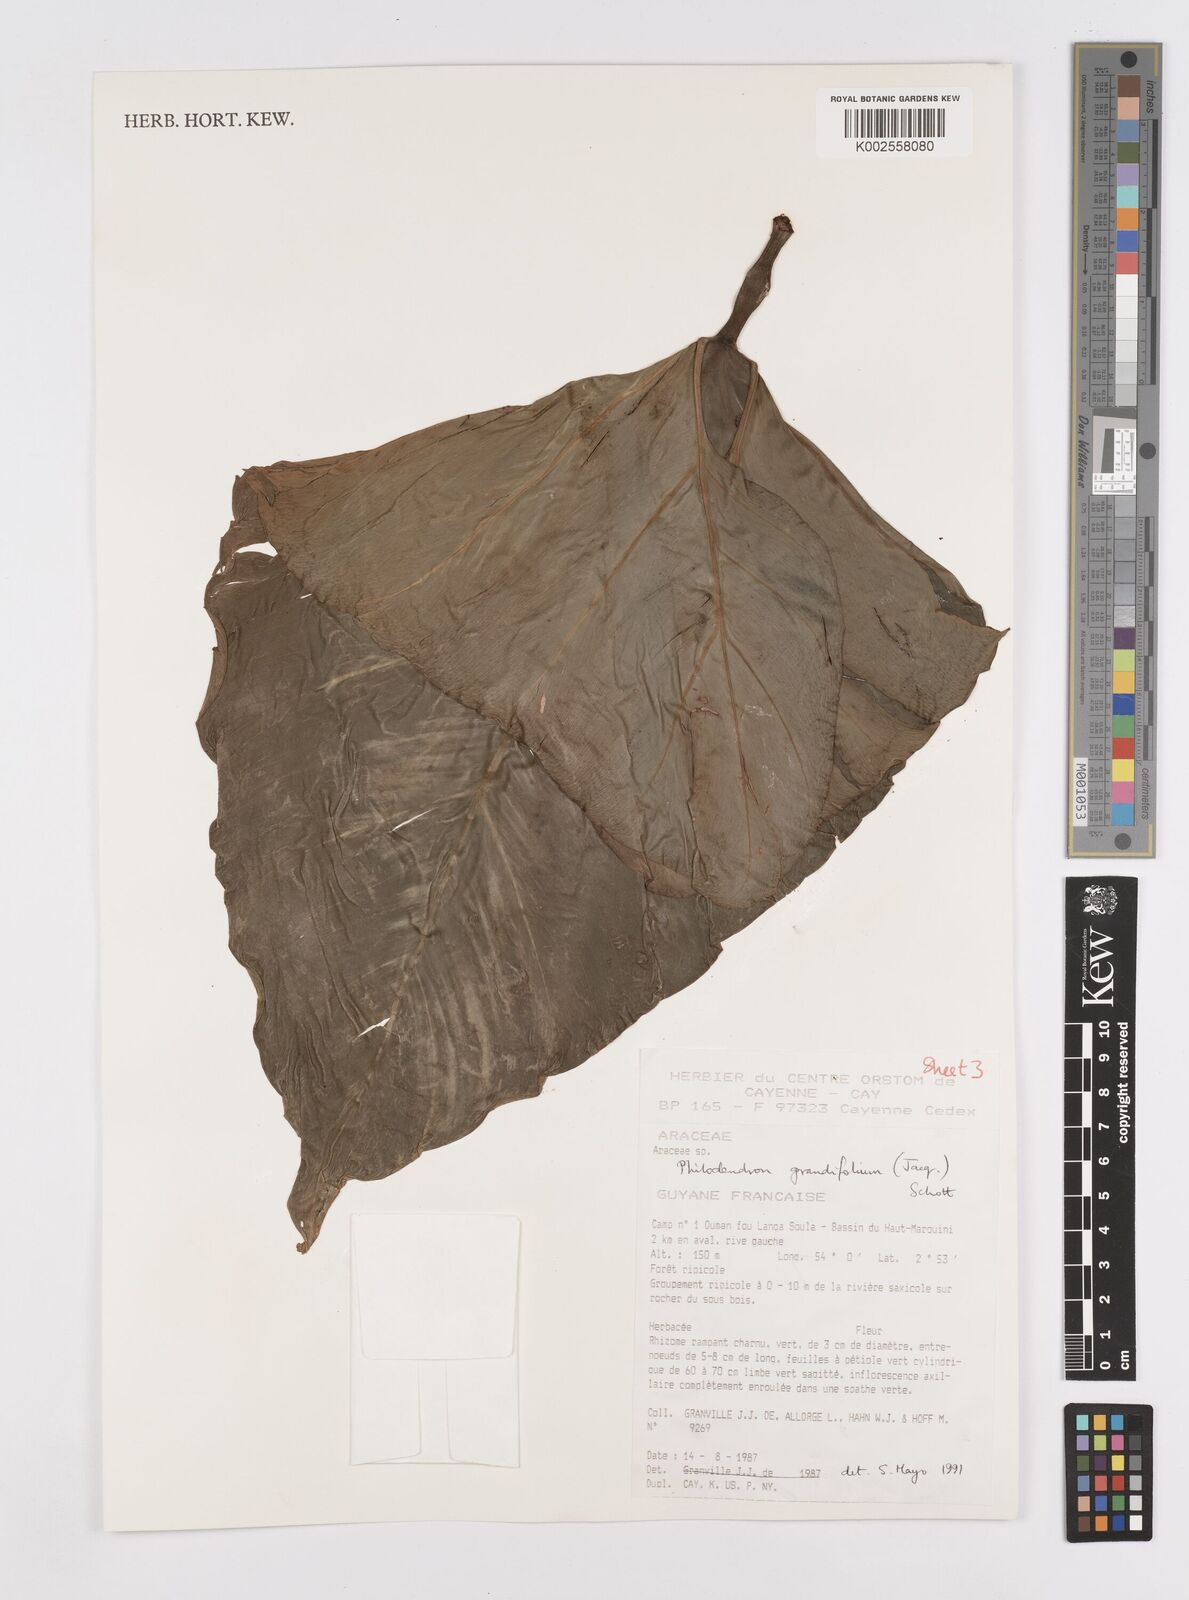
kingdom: Plantae
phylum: Tracheophyta
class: Liliopsida
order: Alismatales
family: Araceae
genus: Philodendron
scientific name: Philodendron grandifolium
